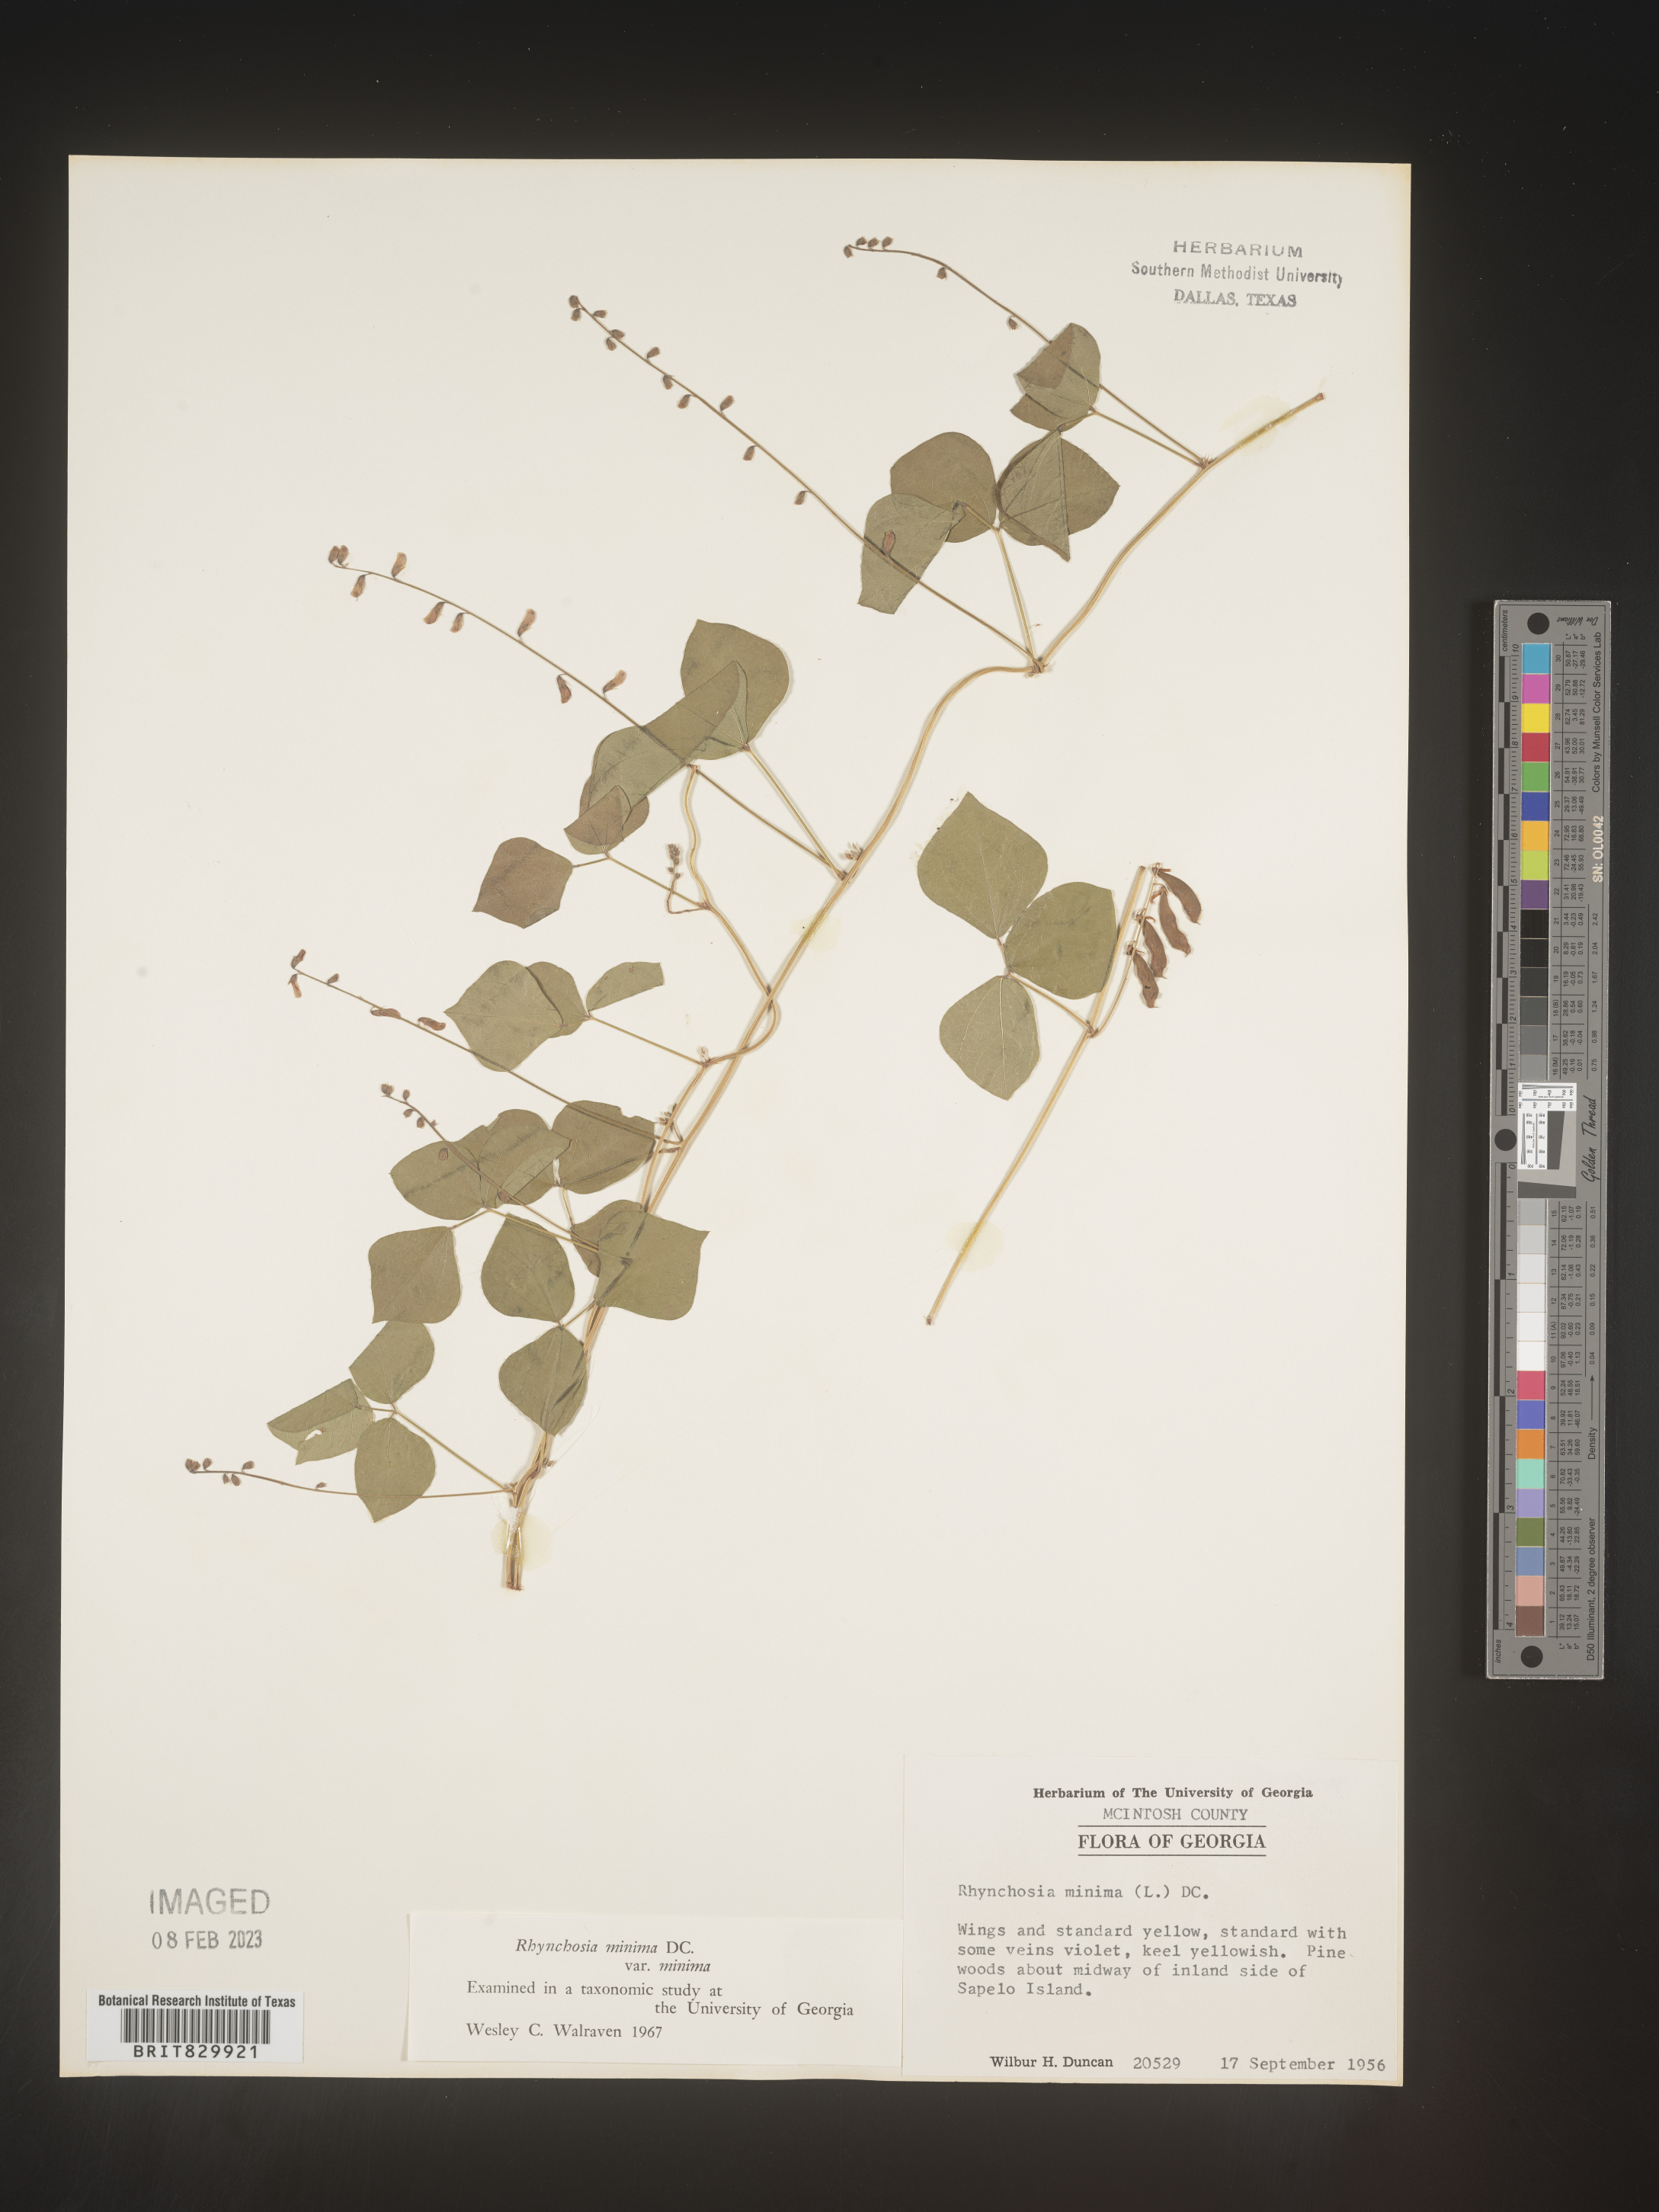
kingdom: Plantae
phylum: Tracheophyta
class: Magnoliopsida
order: Fabales
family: Fabaceae
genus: Rhynchosia
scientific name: Rhynchosia
